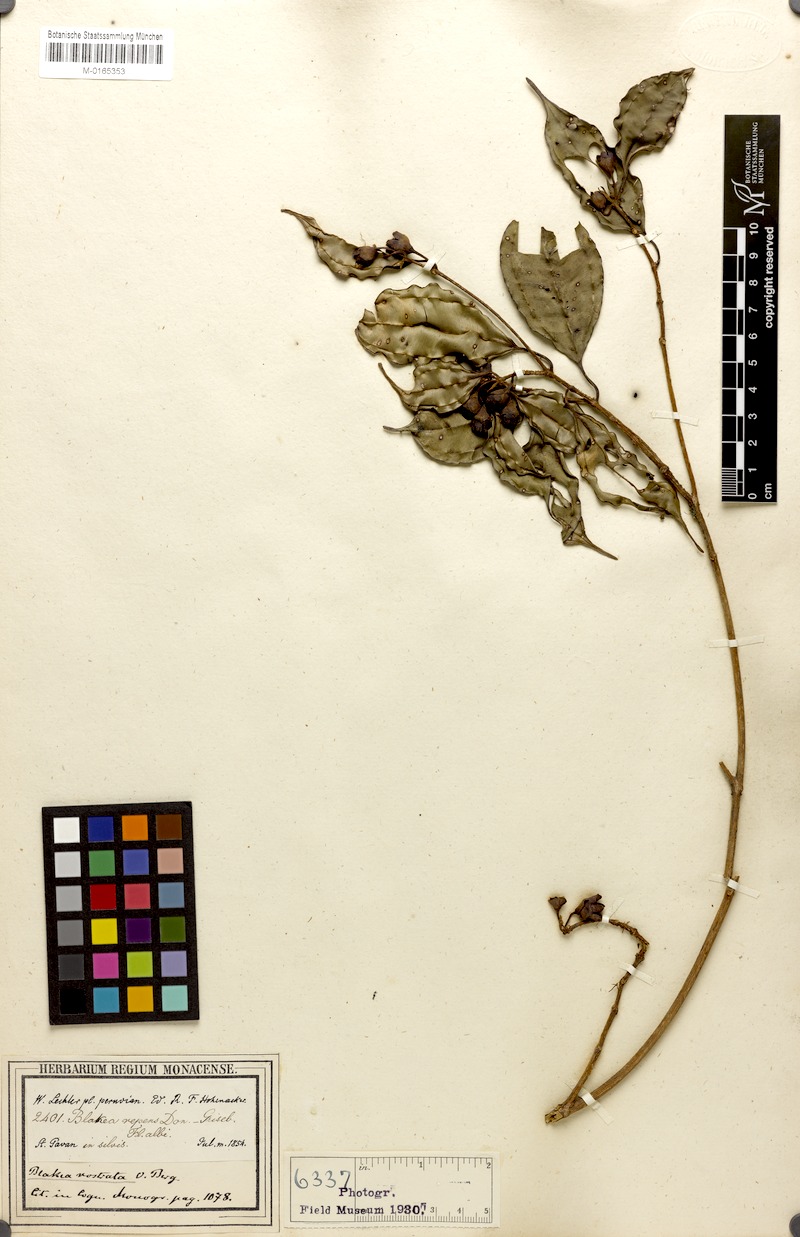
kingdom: Plantae
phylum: Tracheophyta
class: Magnoliopsida
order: Myrtales
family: Melastomataceae
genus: Blakea
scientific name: Blakea rostrata
